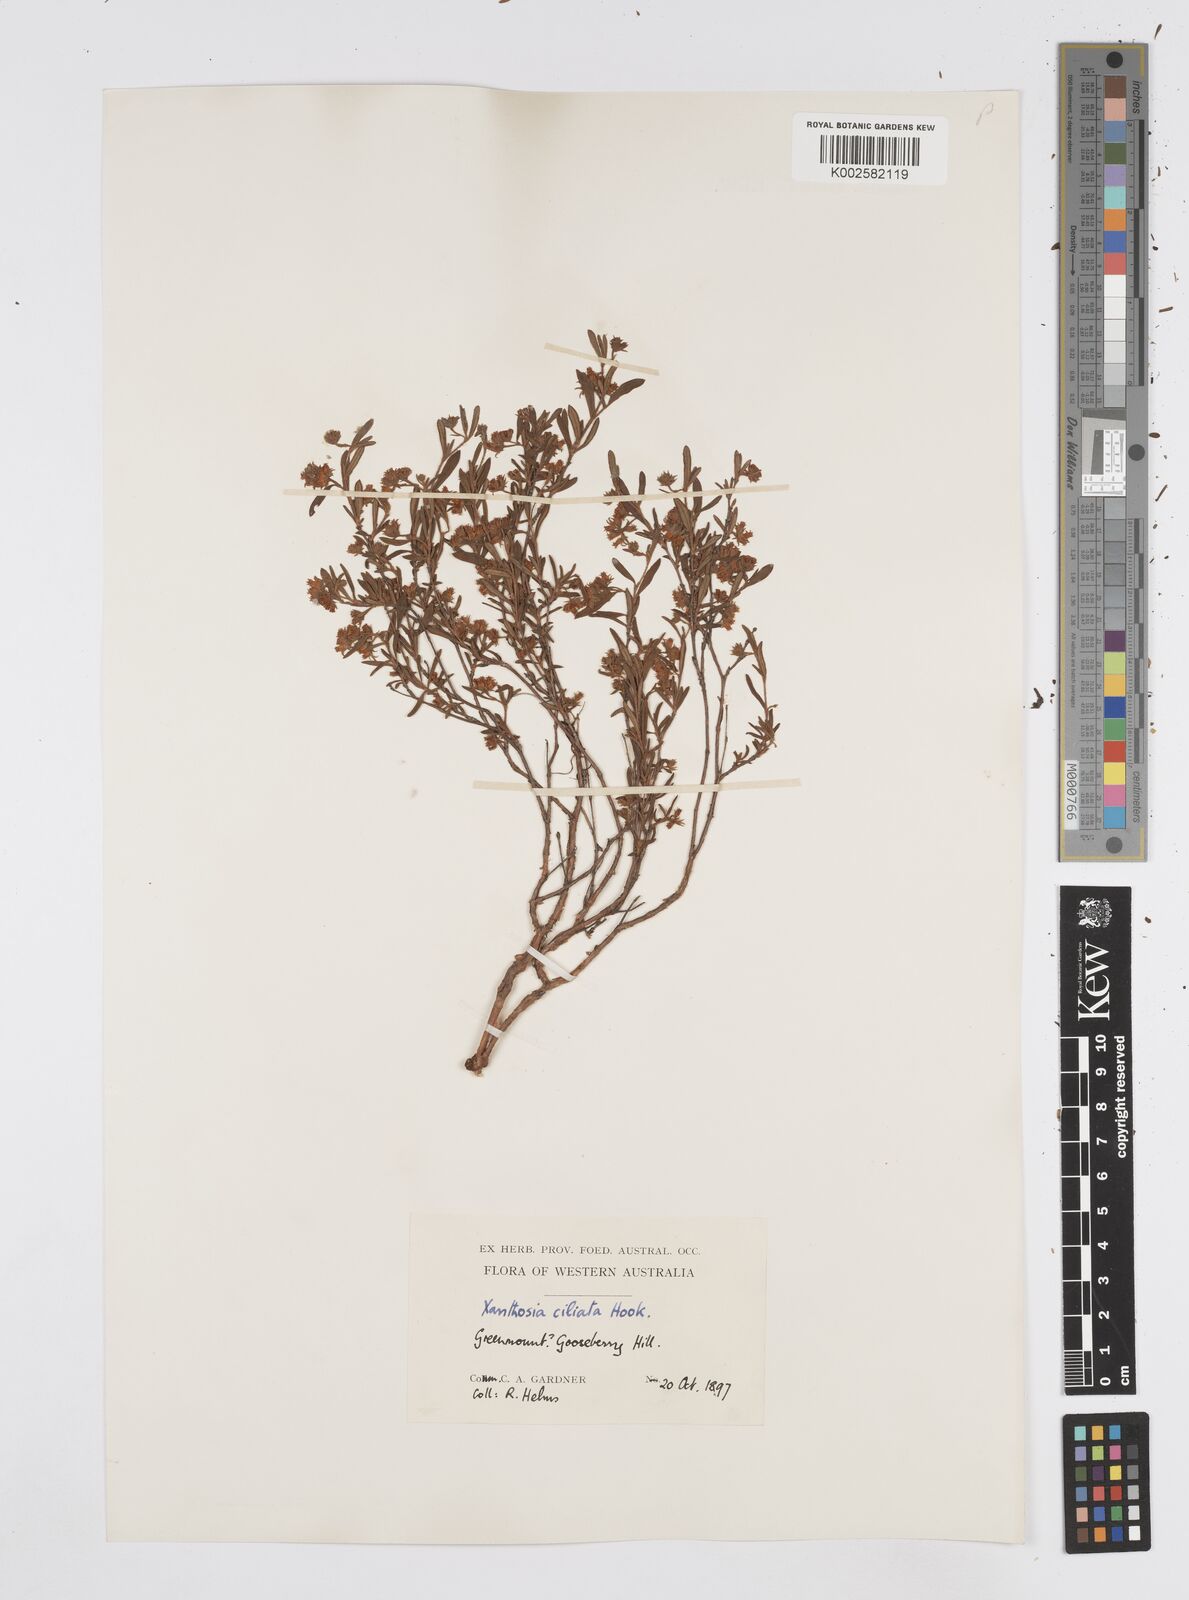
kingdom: Plantae
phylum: Tracheophyta
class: Magnoliopsida
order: Apiales
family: Apiaceae
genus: Xanthosia
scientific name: Xanthosia ciliata
